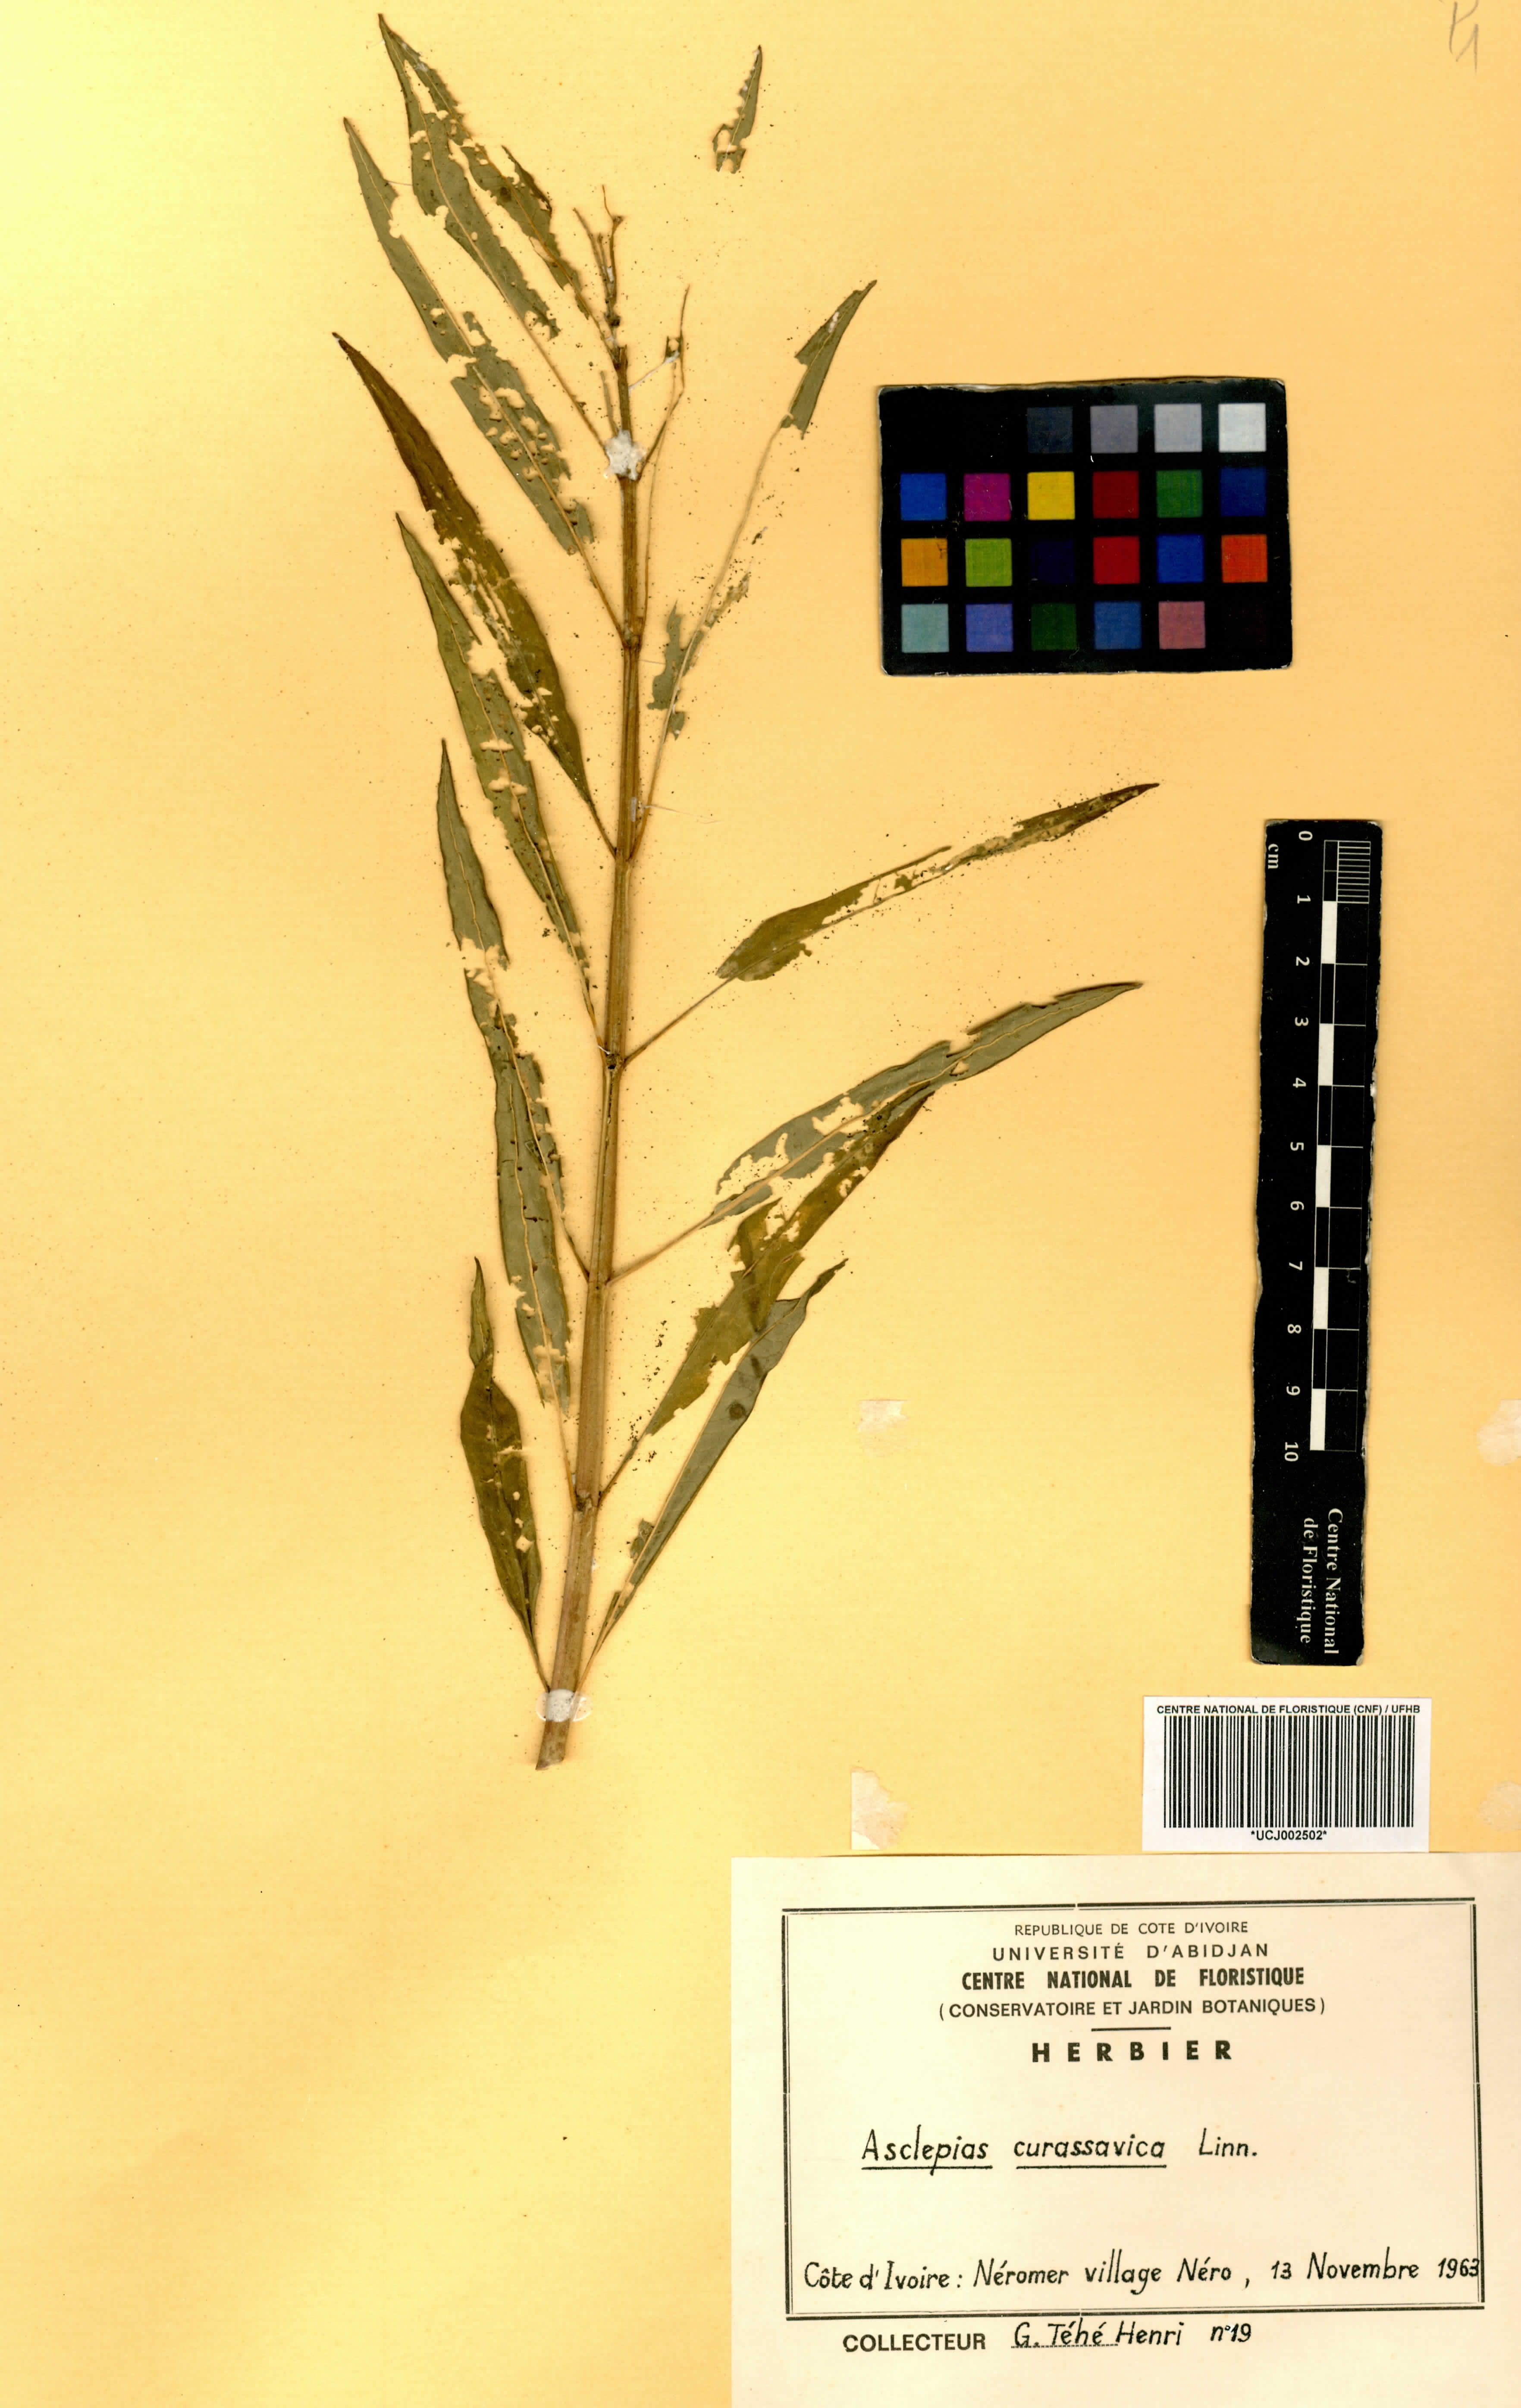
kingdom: Plantae
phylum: Tracheophyta
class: Magnoliopsida
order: Gentianales
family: Apocynaceae
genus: Asclepias
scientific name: Asclepias curassavica
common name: Bloodflower
